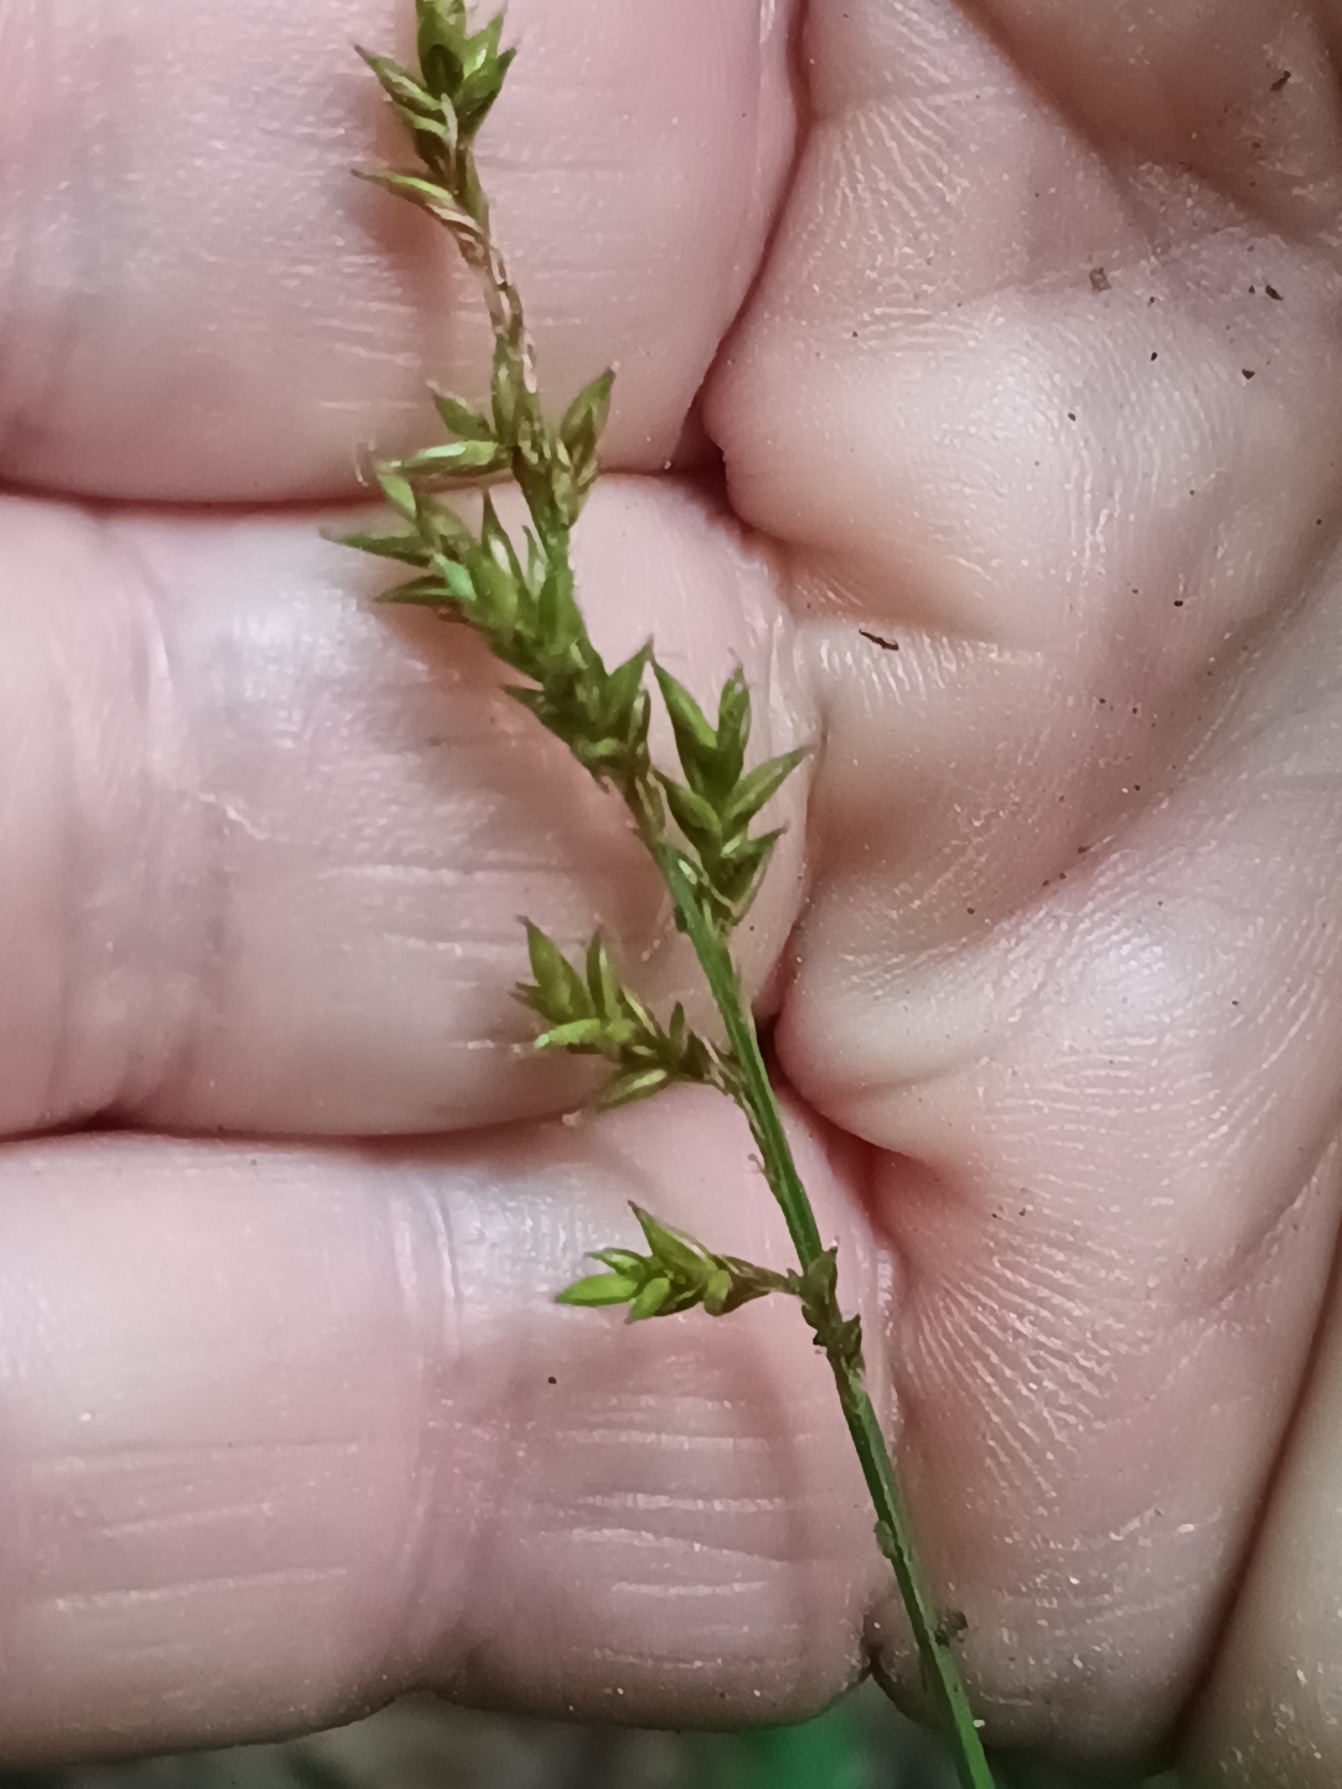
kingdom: Plantae
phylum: Tracheophyta
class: Liliopsida
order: Poales
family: Cyperaceae
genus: Carex
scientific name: Carex elongata
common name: Forlænget star
